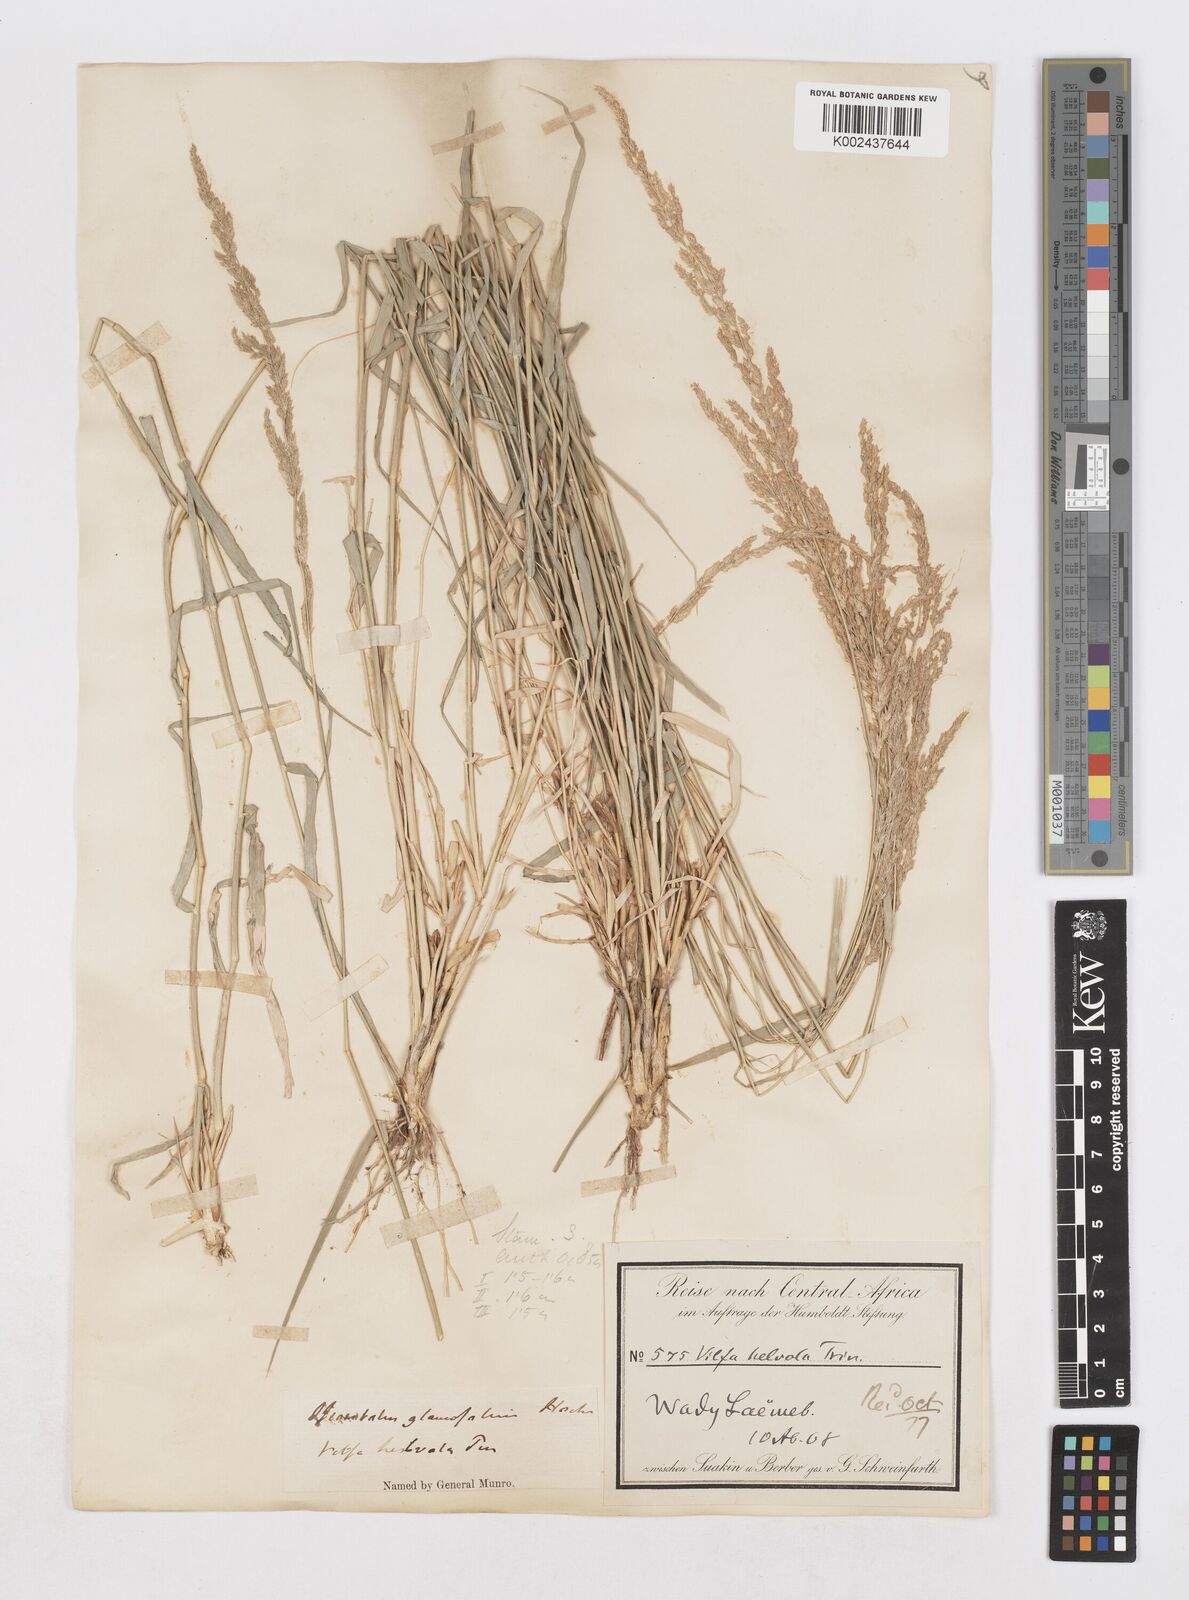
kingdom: Plantae
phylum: Tracheophyta
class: Liliopsida
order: Poales
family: Poaceae
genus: Sporobolus
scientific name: Sporobolus helvolus
